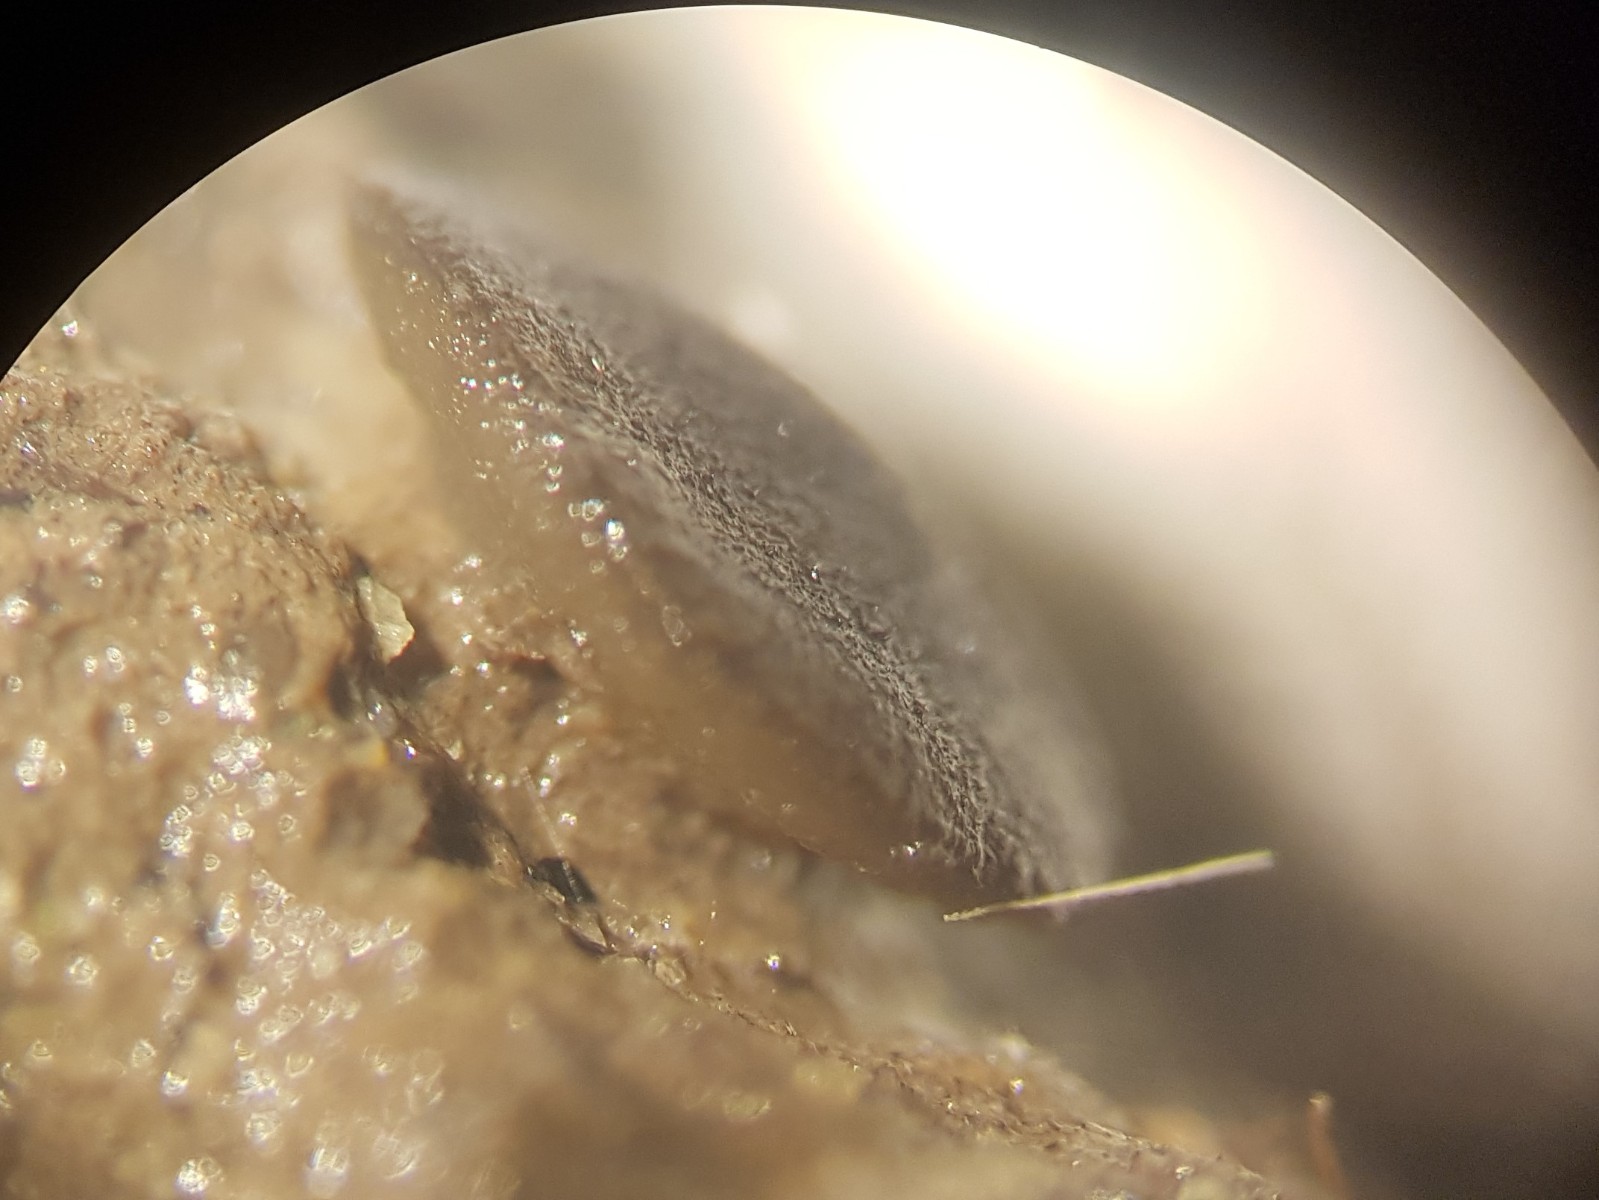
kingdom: Fungi
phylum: Ascomycota
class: Pezizomycetes
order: Pezizales
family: Ascobolaceae
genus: Ascobolus
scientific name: Ascobolus carbonarius
